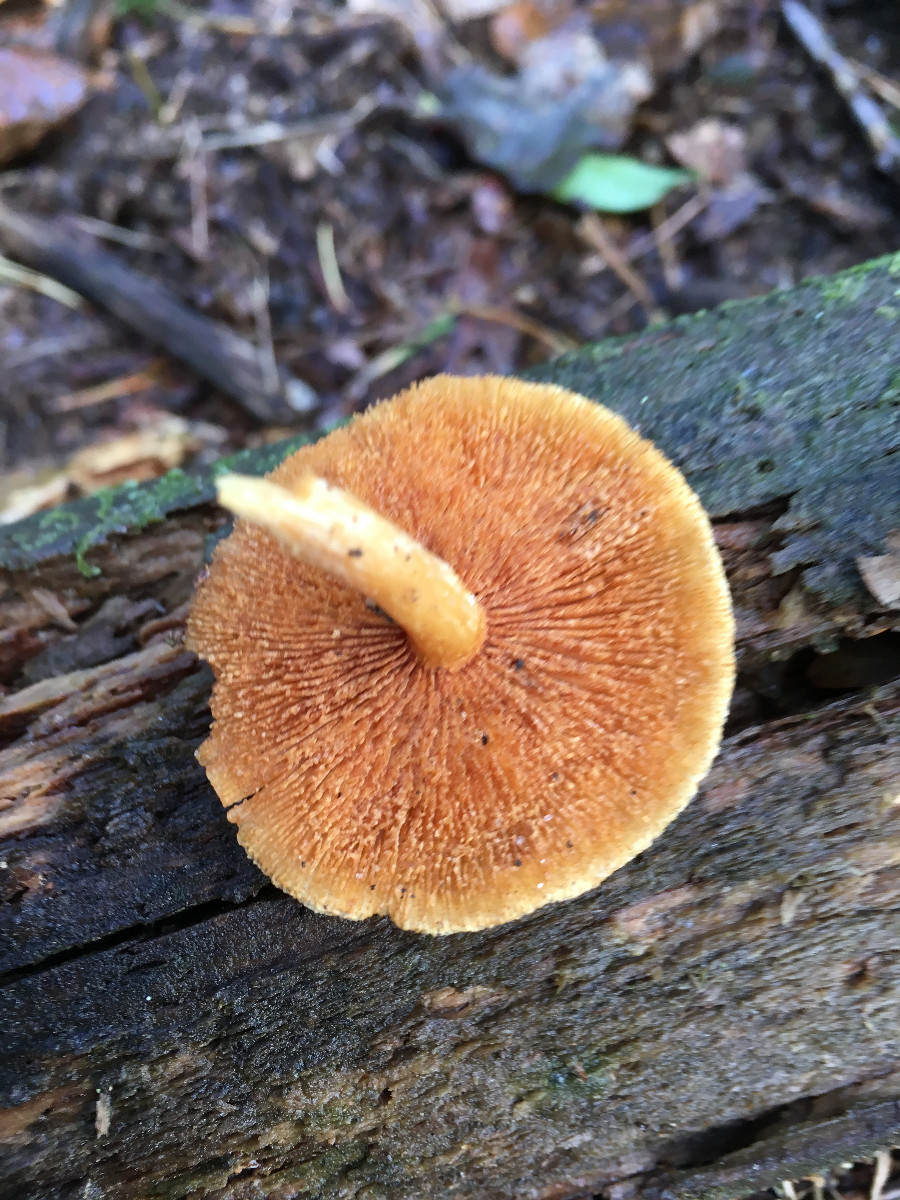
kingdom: Fungi
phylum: Basidiomycota
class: Agaricomycetes
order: Agaricales
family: Hymenogastraceae
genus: Gymnopilus
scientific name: Gymnopilus penetrans
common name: plettet flammehat
